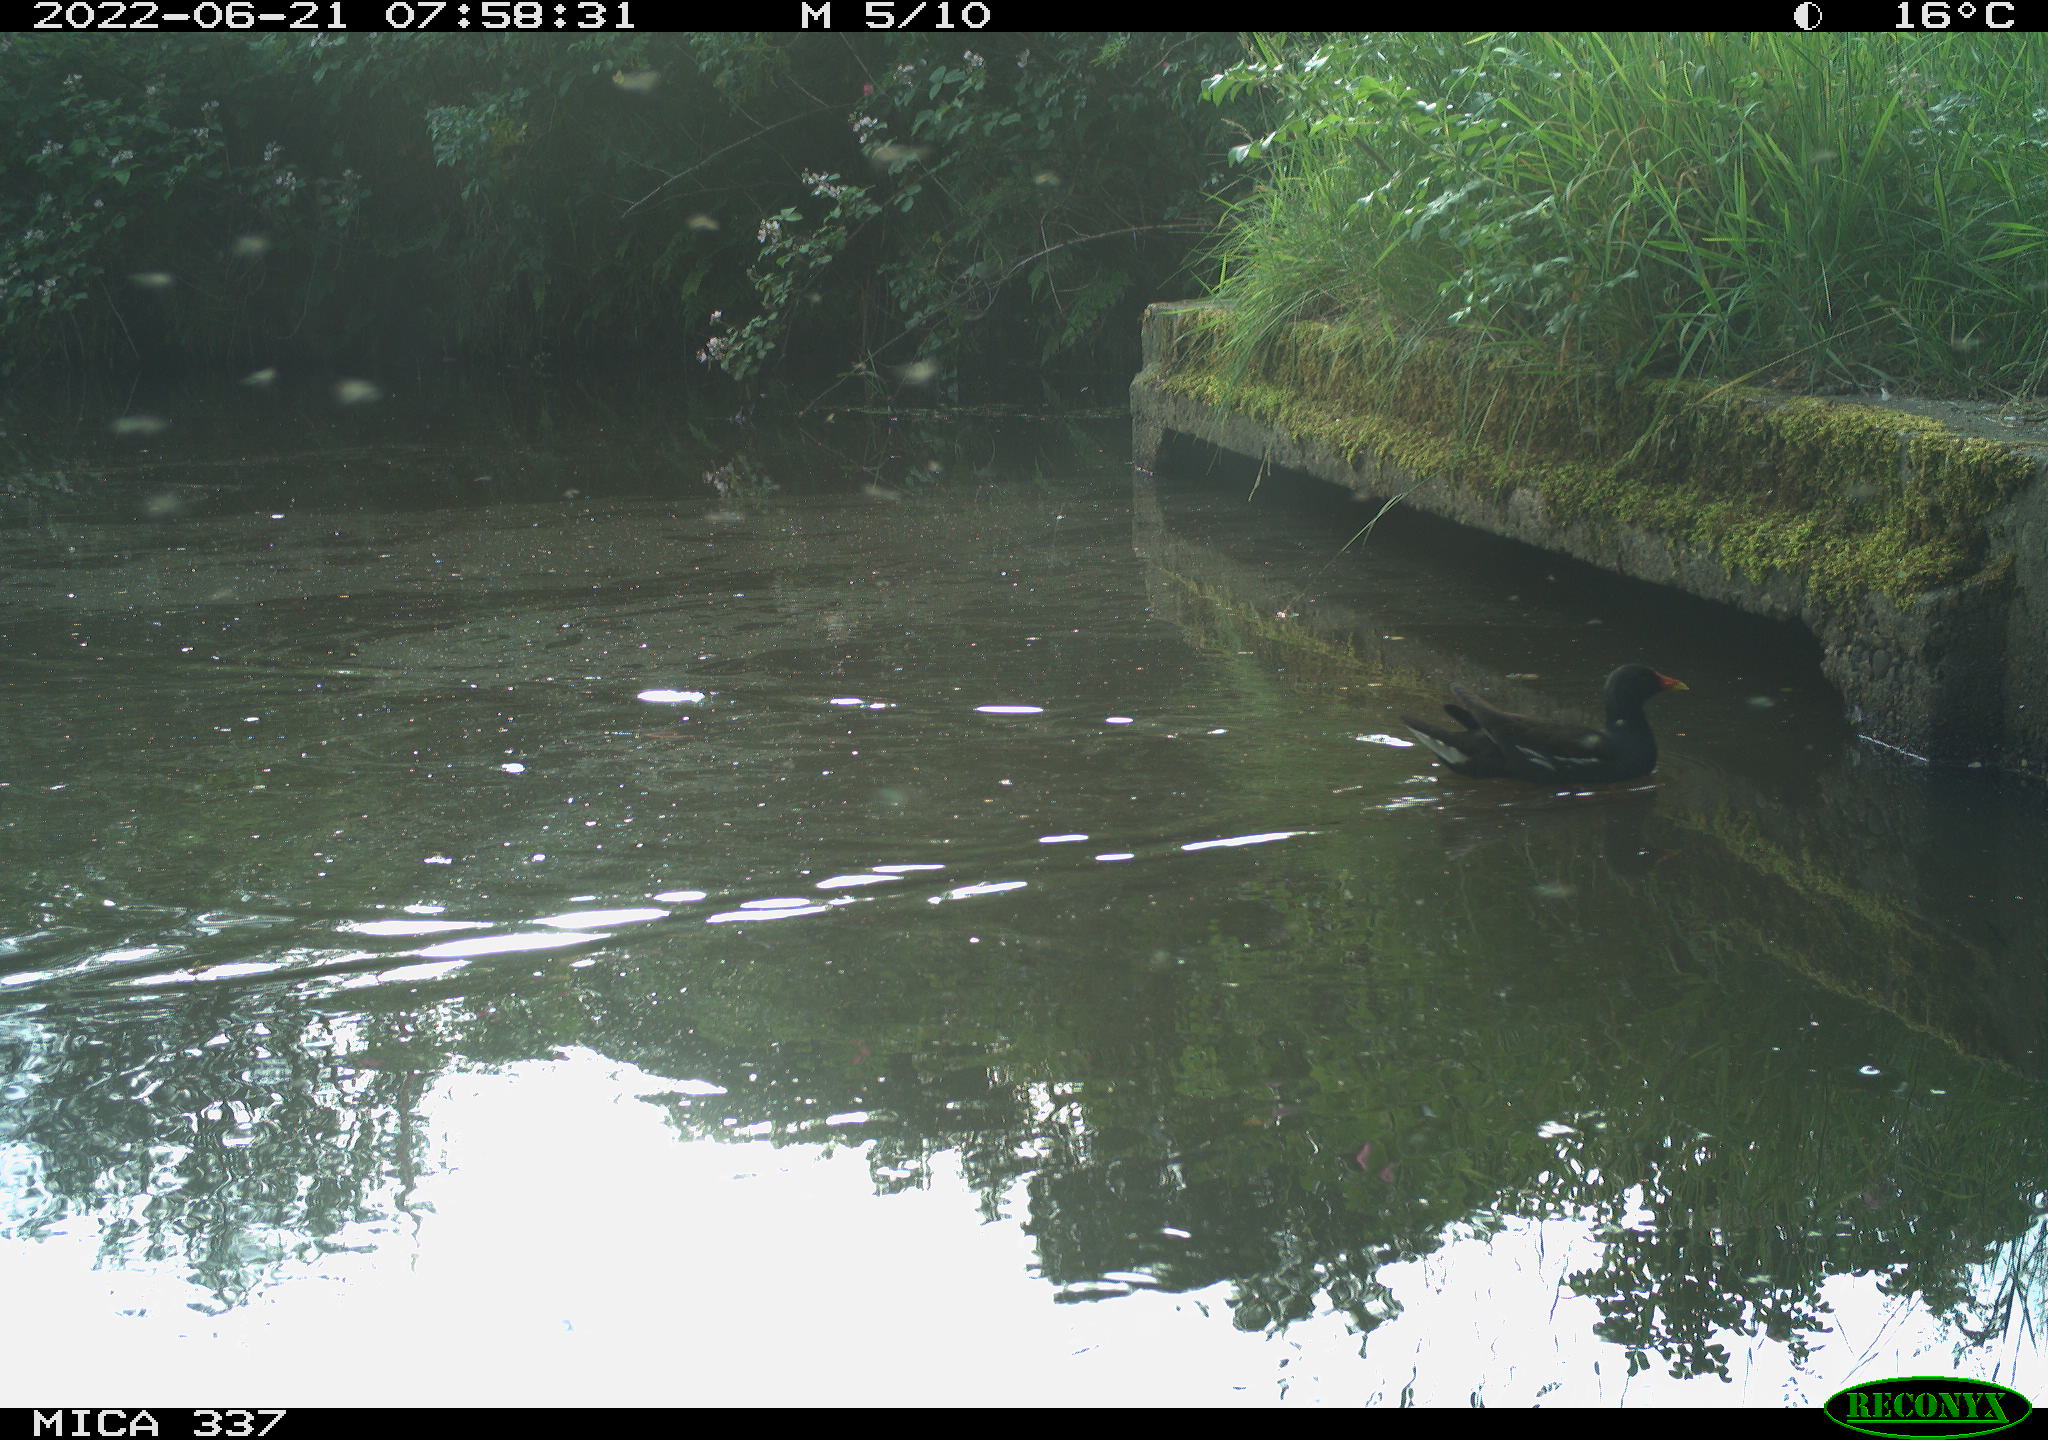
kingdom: Animalia
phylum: Chordata
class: Aves
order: Gruiformes
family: Rallidae
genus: Gallinula
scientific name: Gallinula chloropus
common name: Common moorhen
